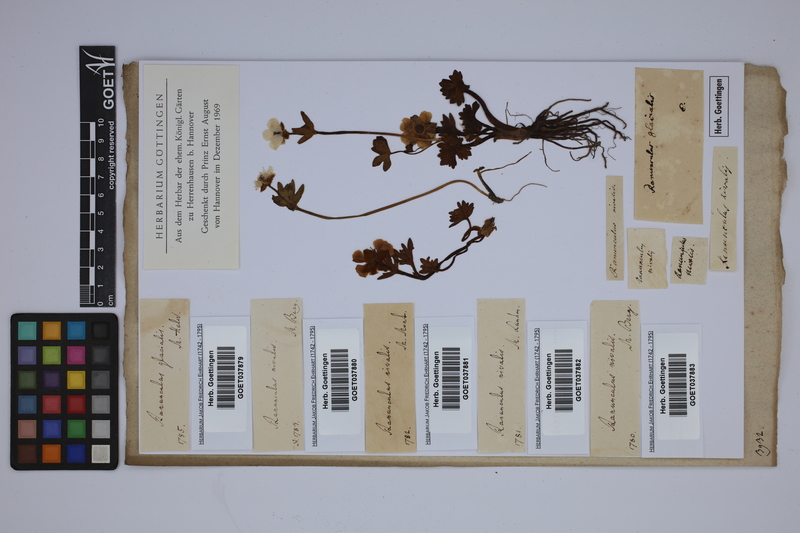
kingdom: Plantae
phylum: Tracheophyta
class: Magnoliopsida
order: Ranunculales
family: Ranunculaceae
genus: Ranunculus
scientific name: Ranunculus glacialis
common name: Glacier buttercup
